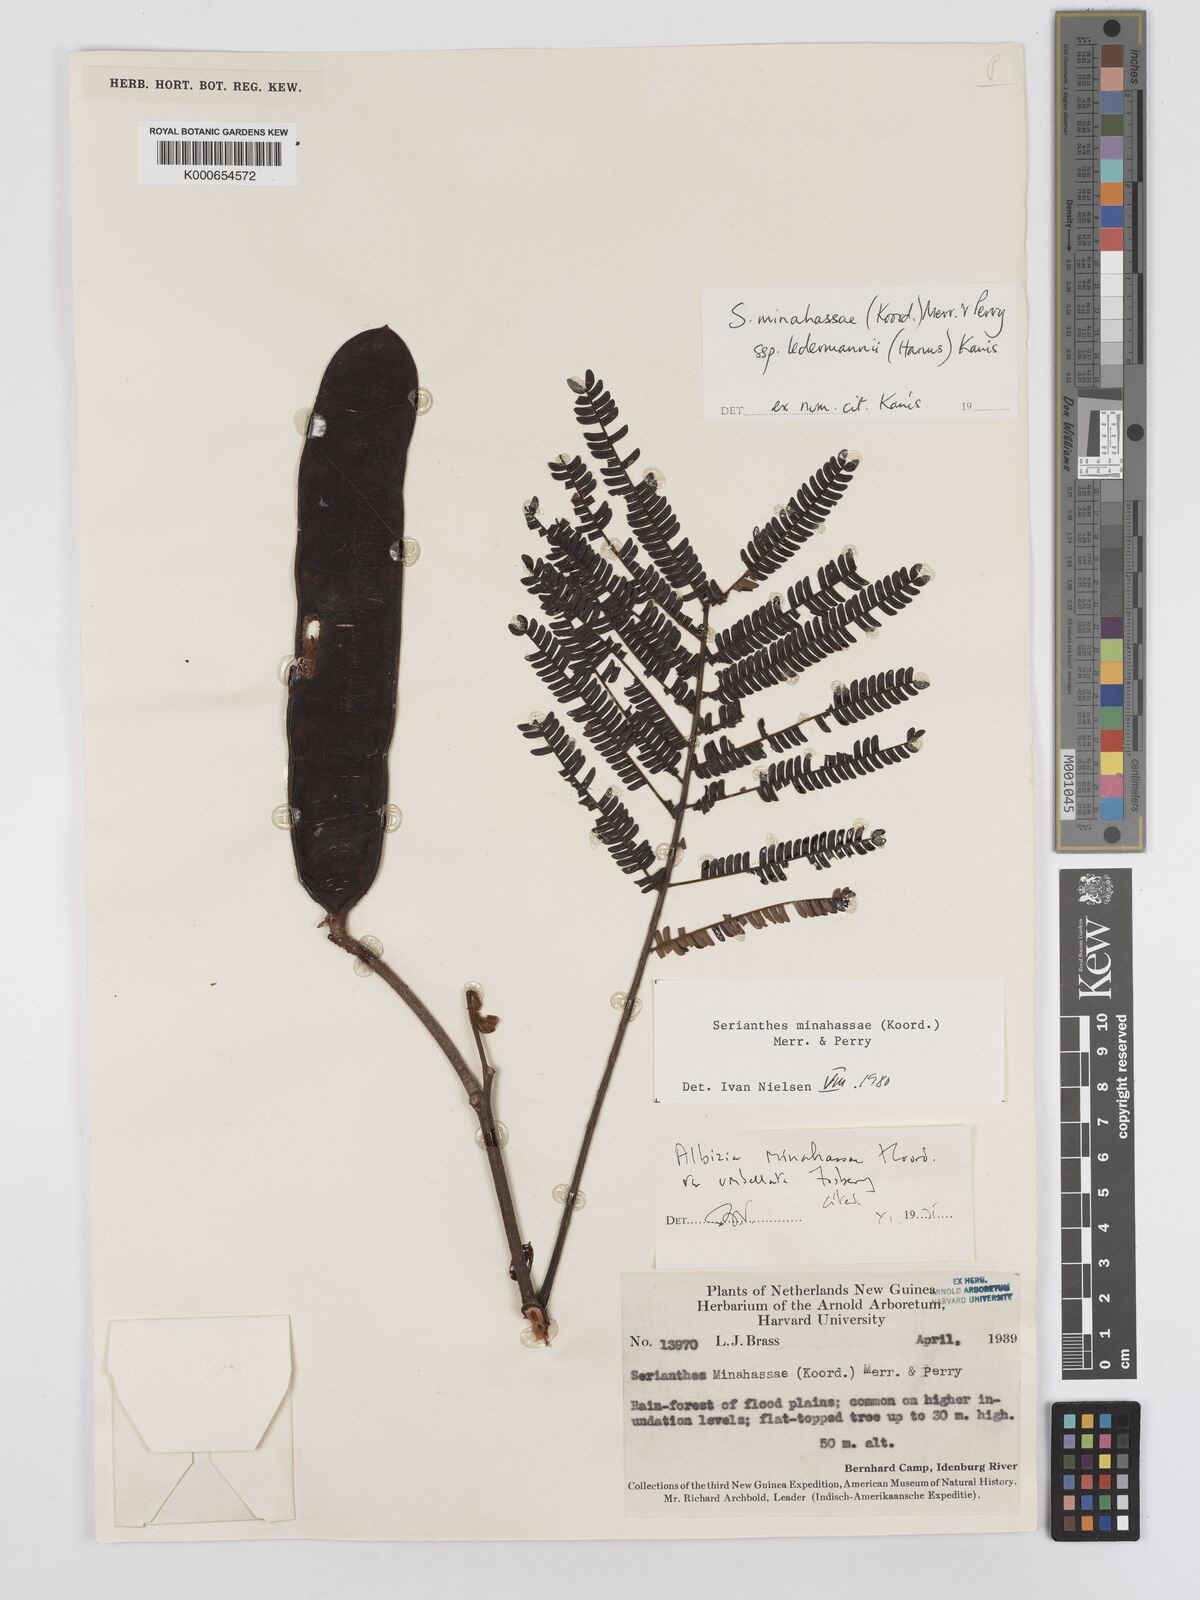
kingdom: Plantae
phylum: Tracheophyta
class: Magnoliopsida
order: Fabales
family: Fabaceae
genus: Serianthes
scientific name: Serianthes minahassae
